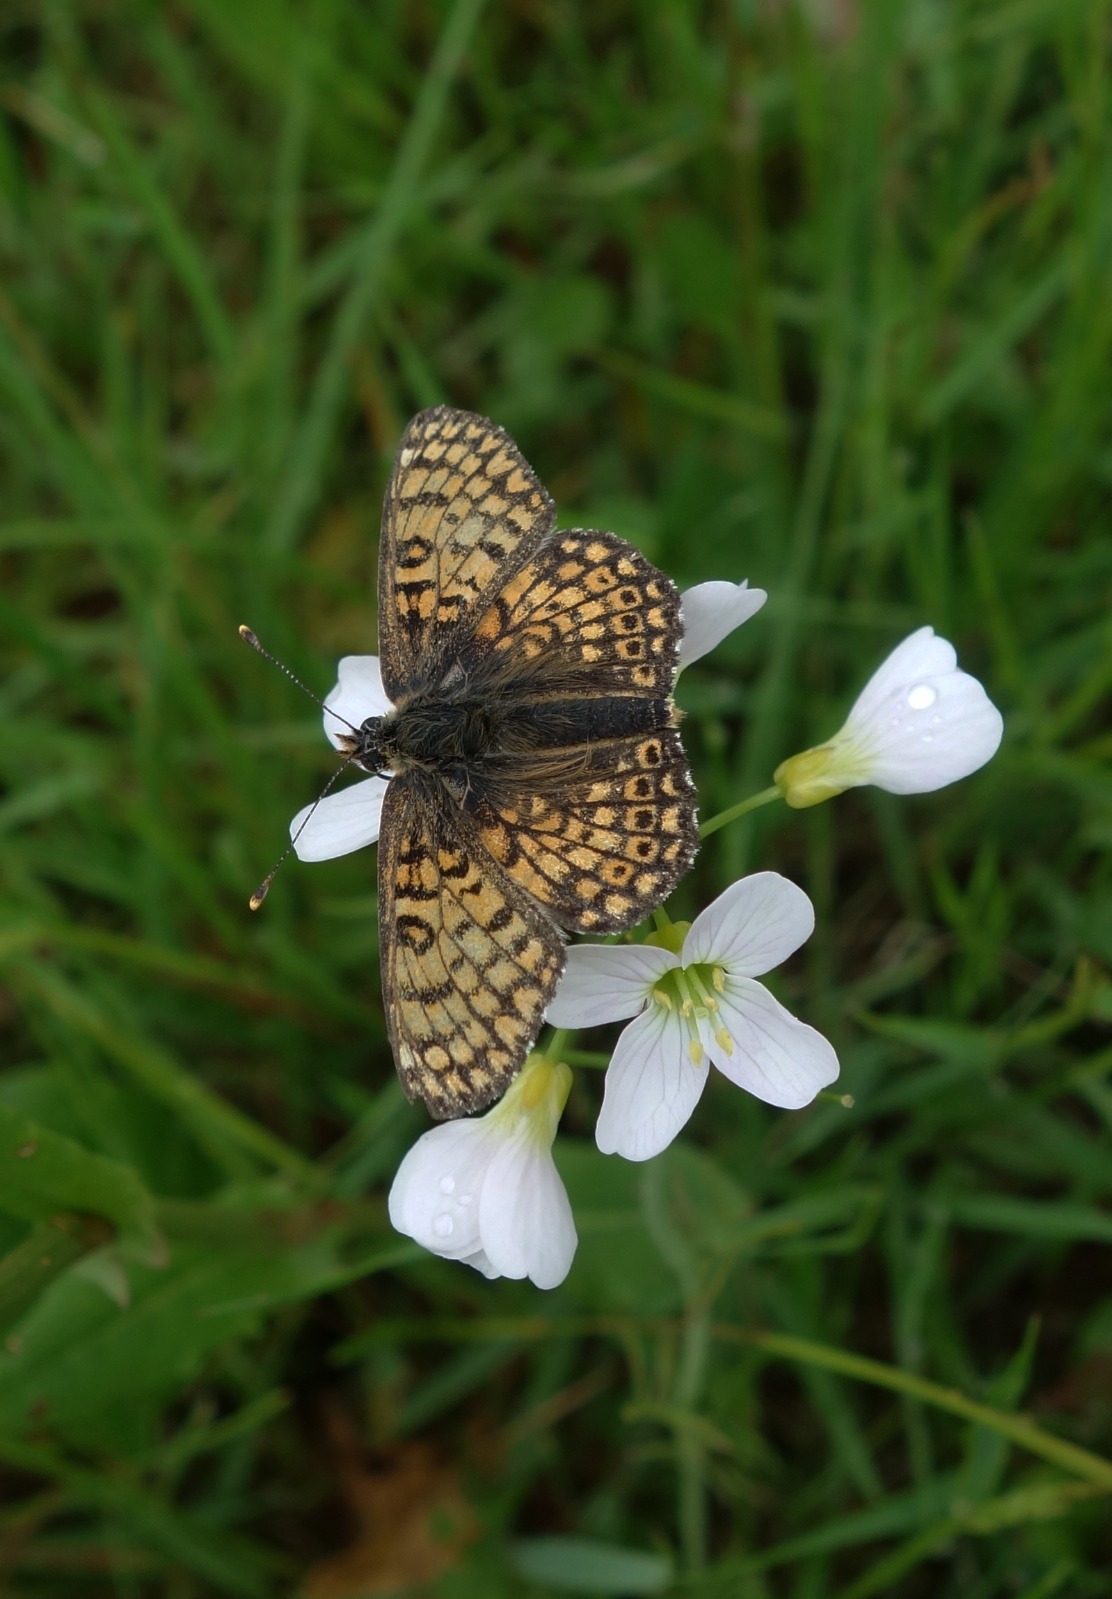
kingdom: Animalia
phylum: Arthropoda
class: Insecta
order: Lepidoptera
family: Nymphalidae
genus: Melitaea
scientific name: Melitaea cinxia
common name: Okkergul pletvinge
